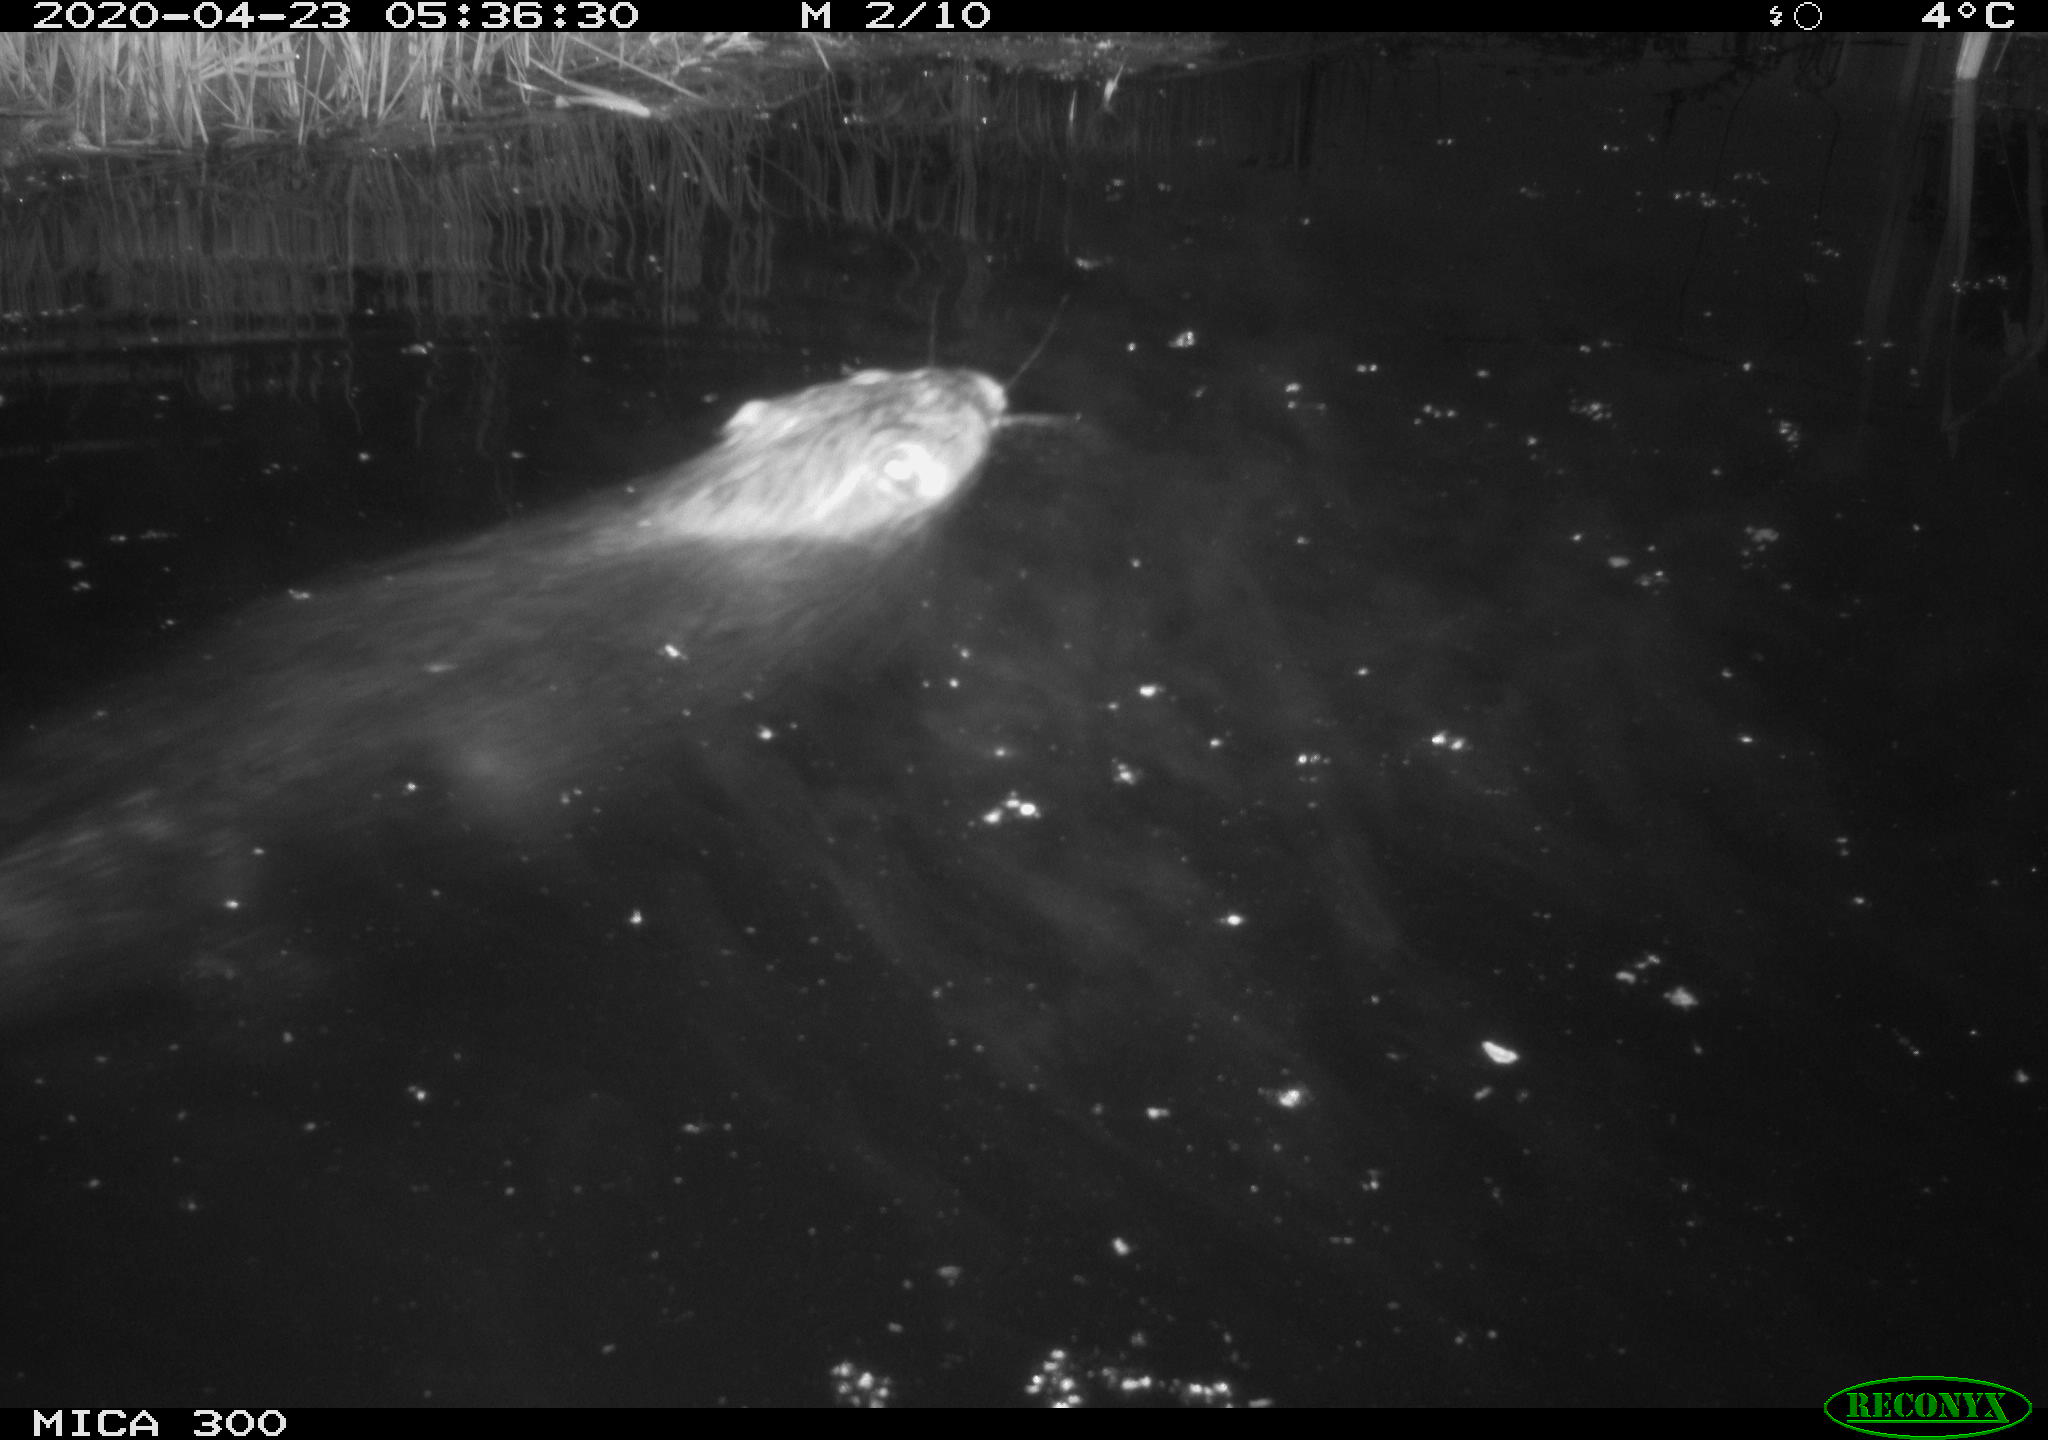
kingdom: Animalia
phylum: Chordata
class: Mammalia
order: Rodentia
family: Castoridae
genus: Castor
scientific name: Castor fiber
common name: Eurasian beaver
